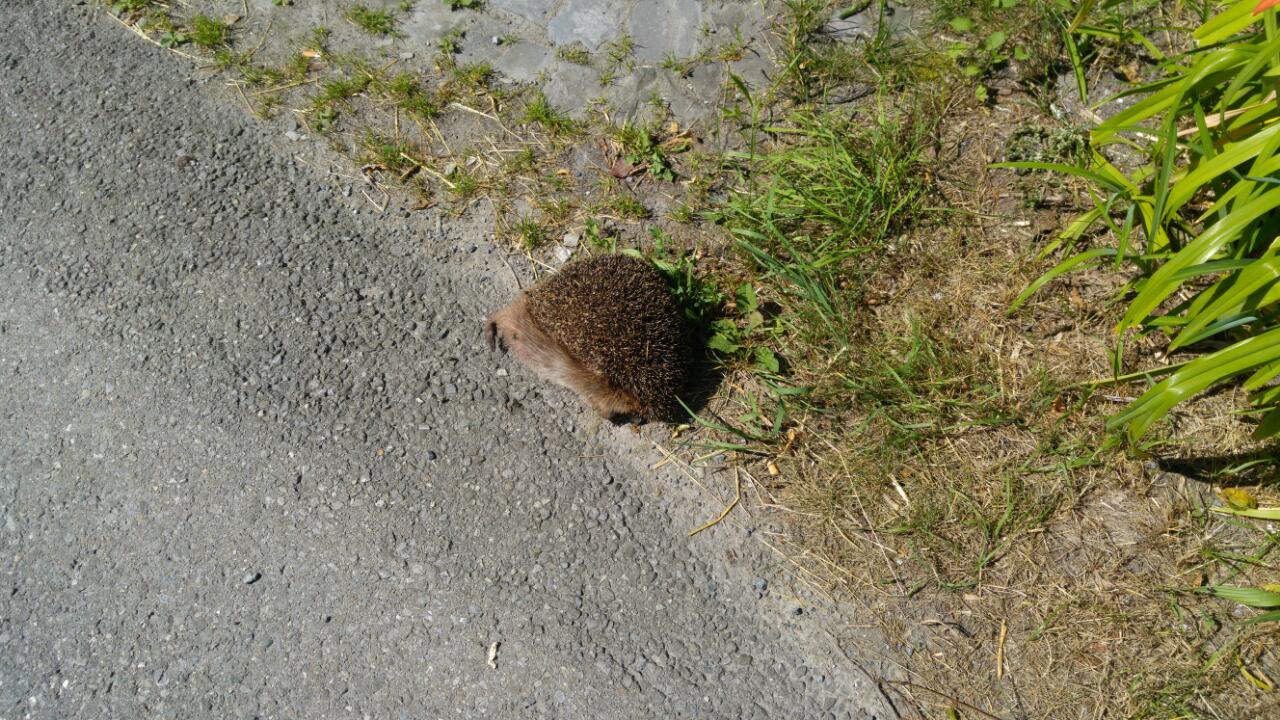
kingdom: Animalia
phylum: Chordata
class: Mammalia
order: Erinaceomorpha
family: Erinaceidae
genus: Erinaceus
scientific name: Erinaceus
